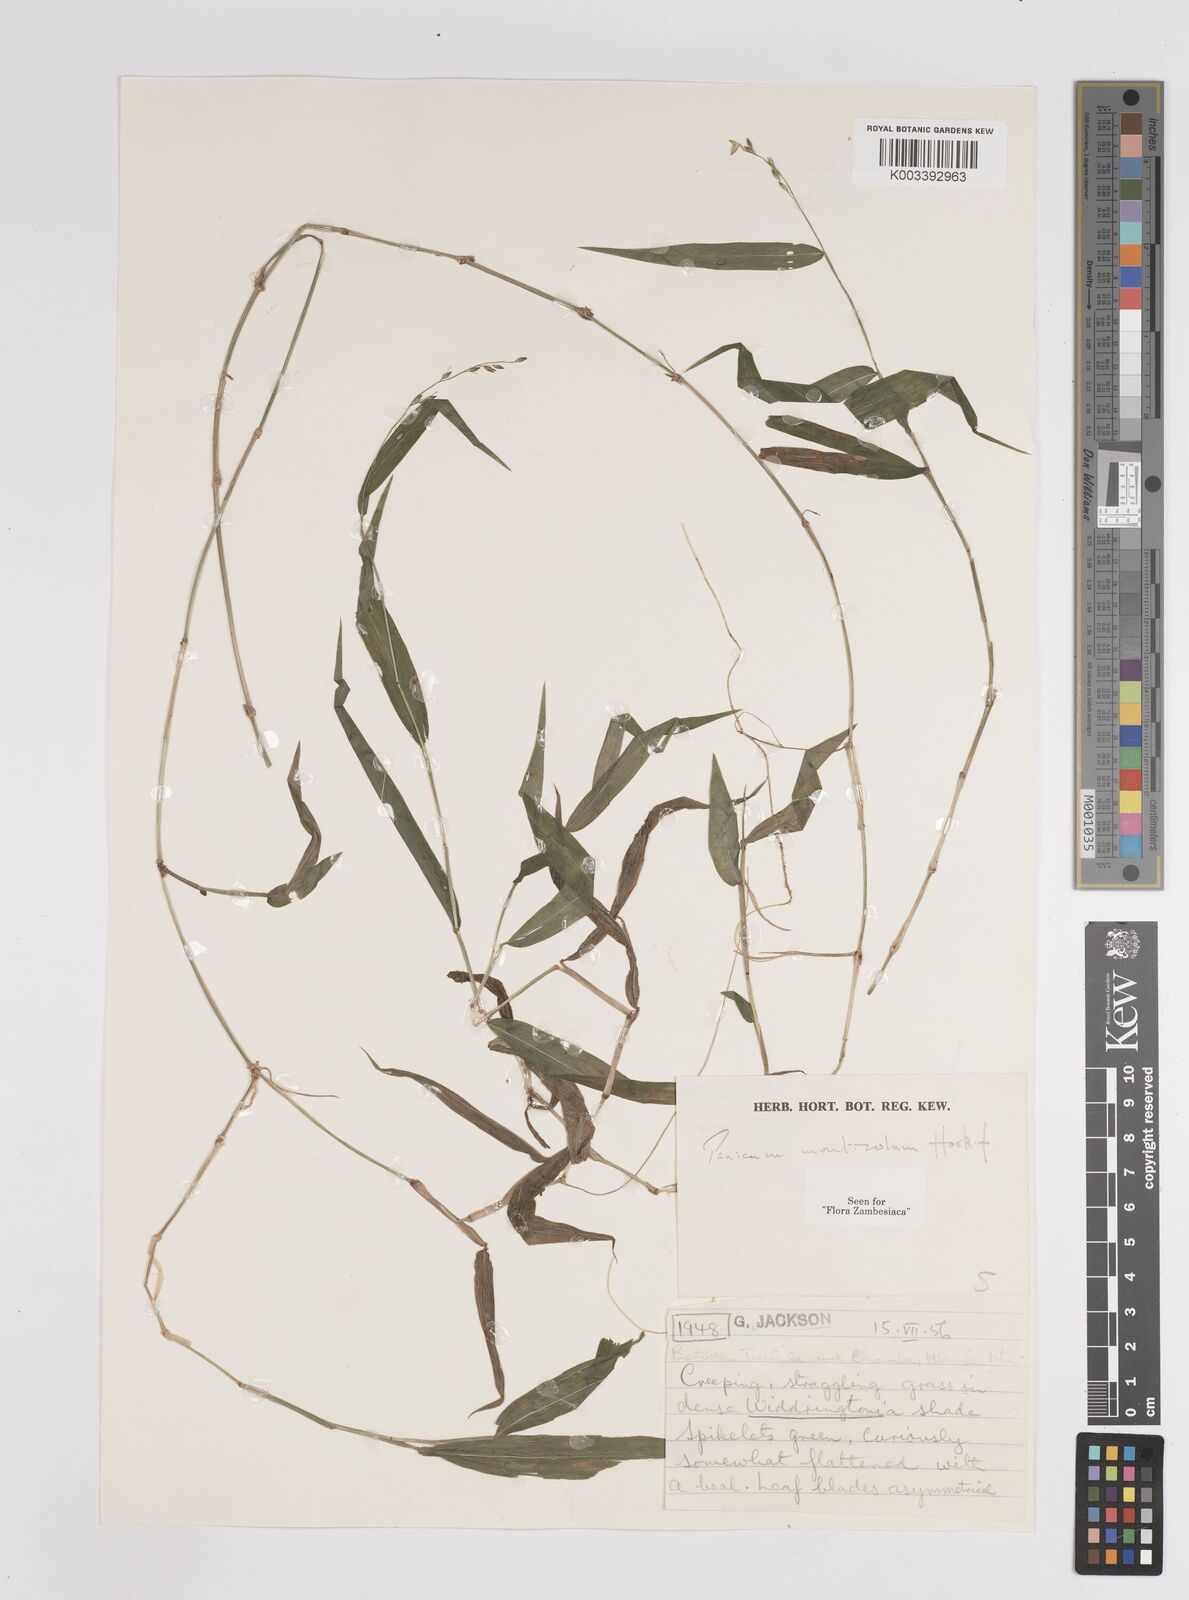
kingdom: Plantae
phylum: Tracheophyta
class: Liliopsida
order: Poales
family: Poaceae
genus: Panicum
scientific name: Panicum monticola
